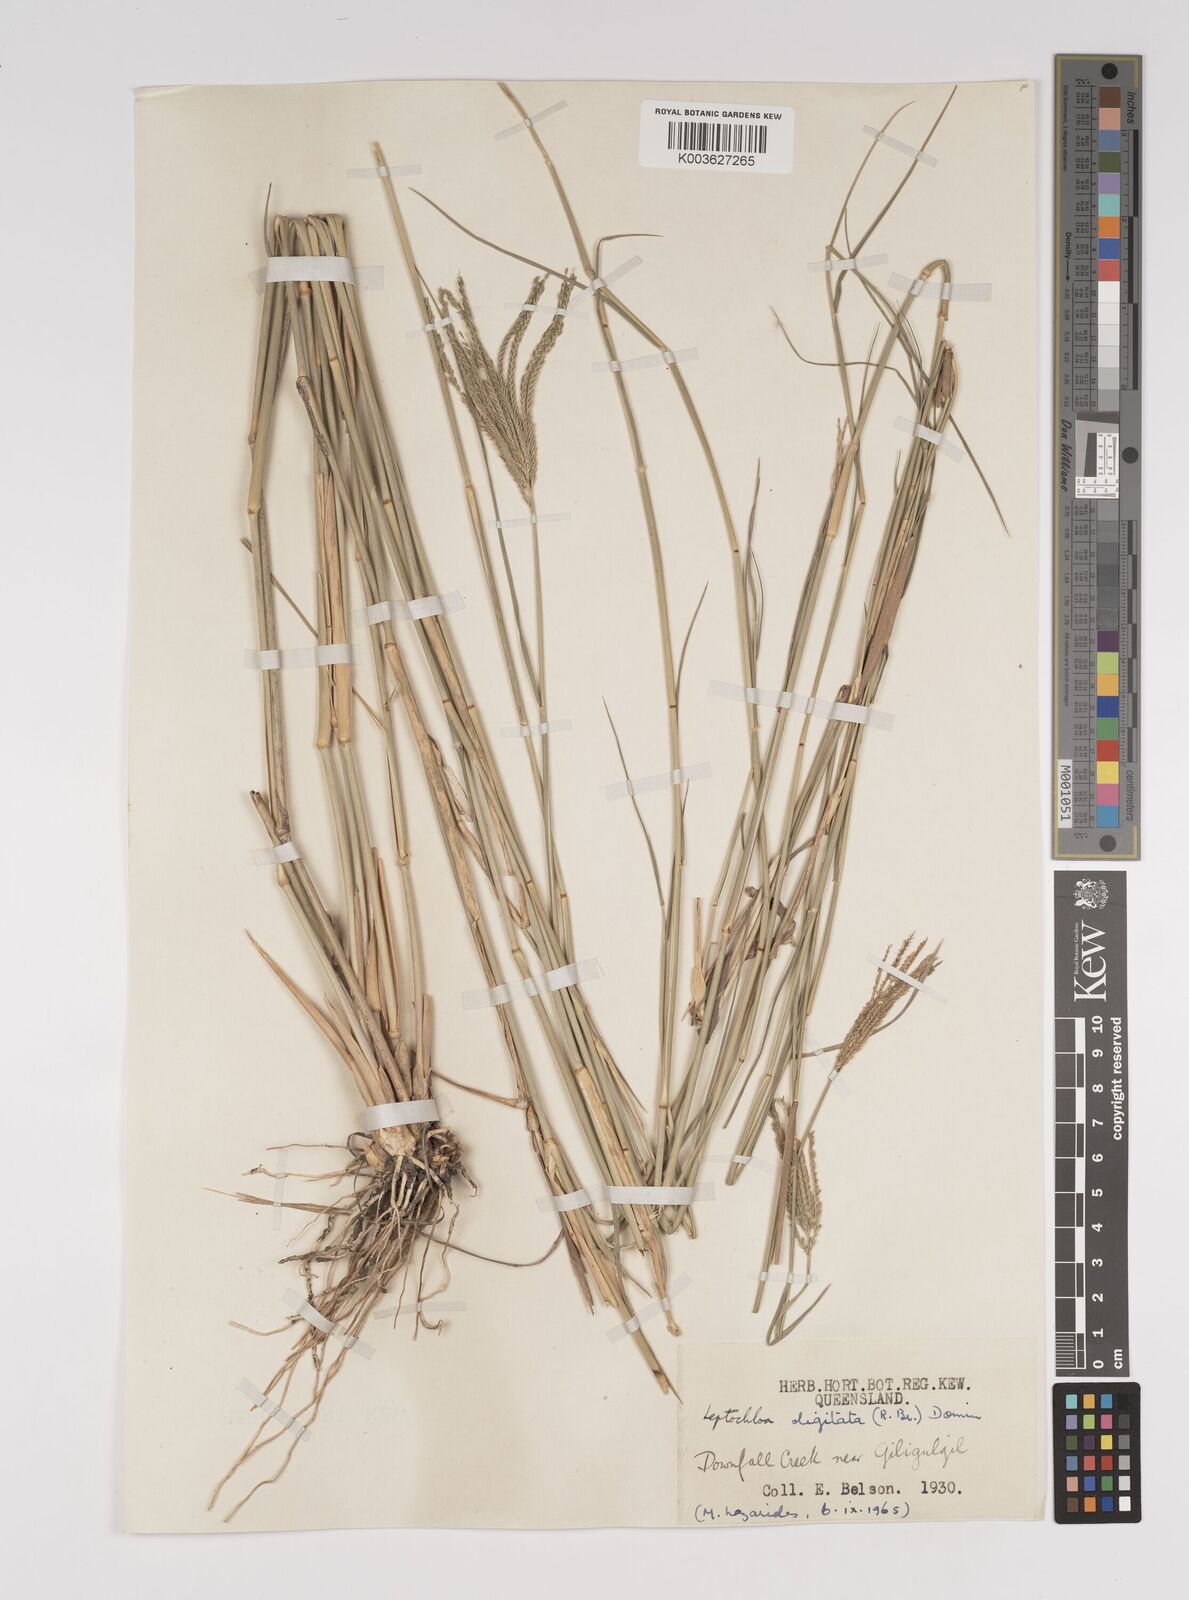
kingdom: Plantae
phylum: Tracheophyta
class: Liliopsida
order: Poales
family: Poaceae
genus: Leptochloa
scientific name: Leptochloa digitata
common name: Finger sprangletop
